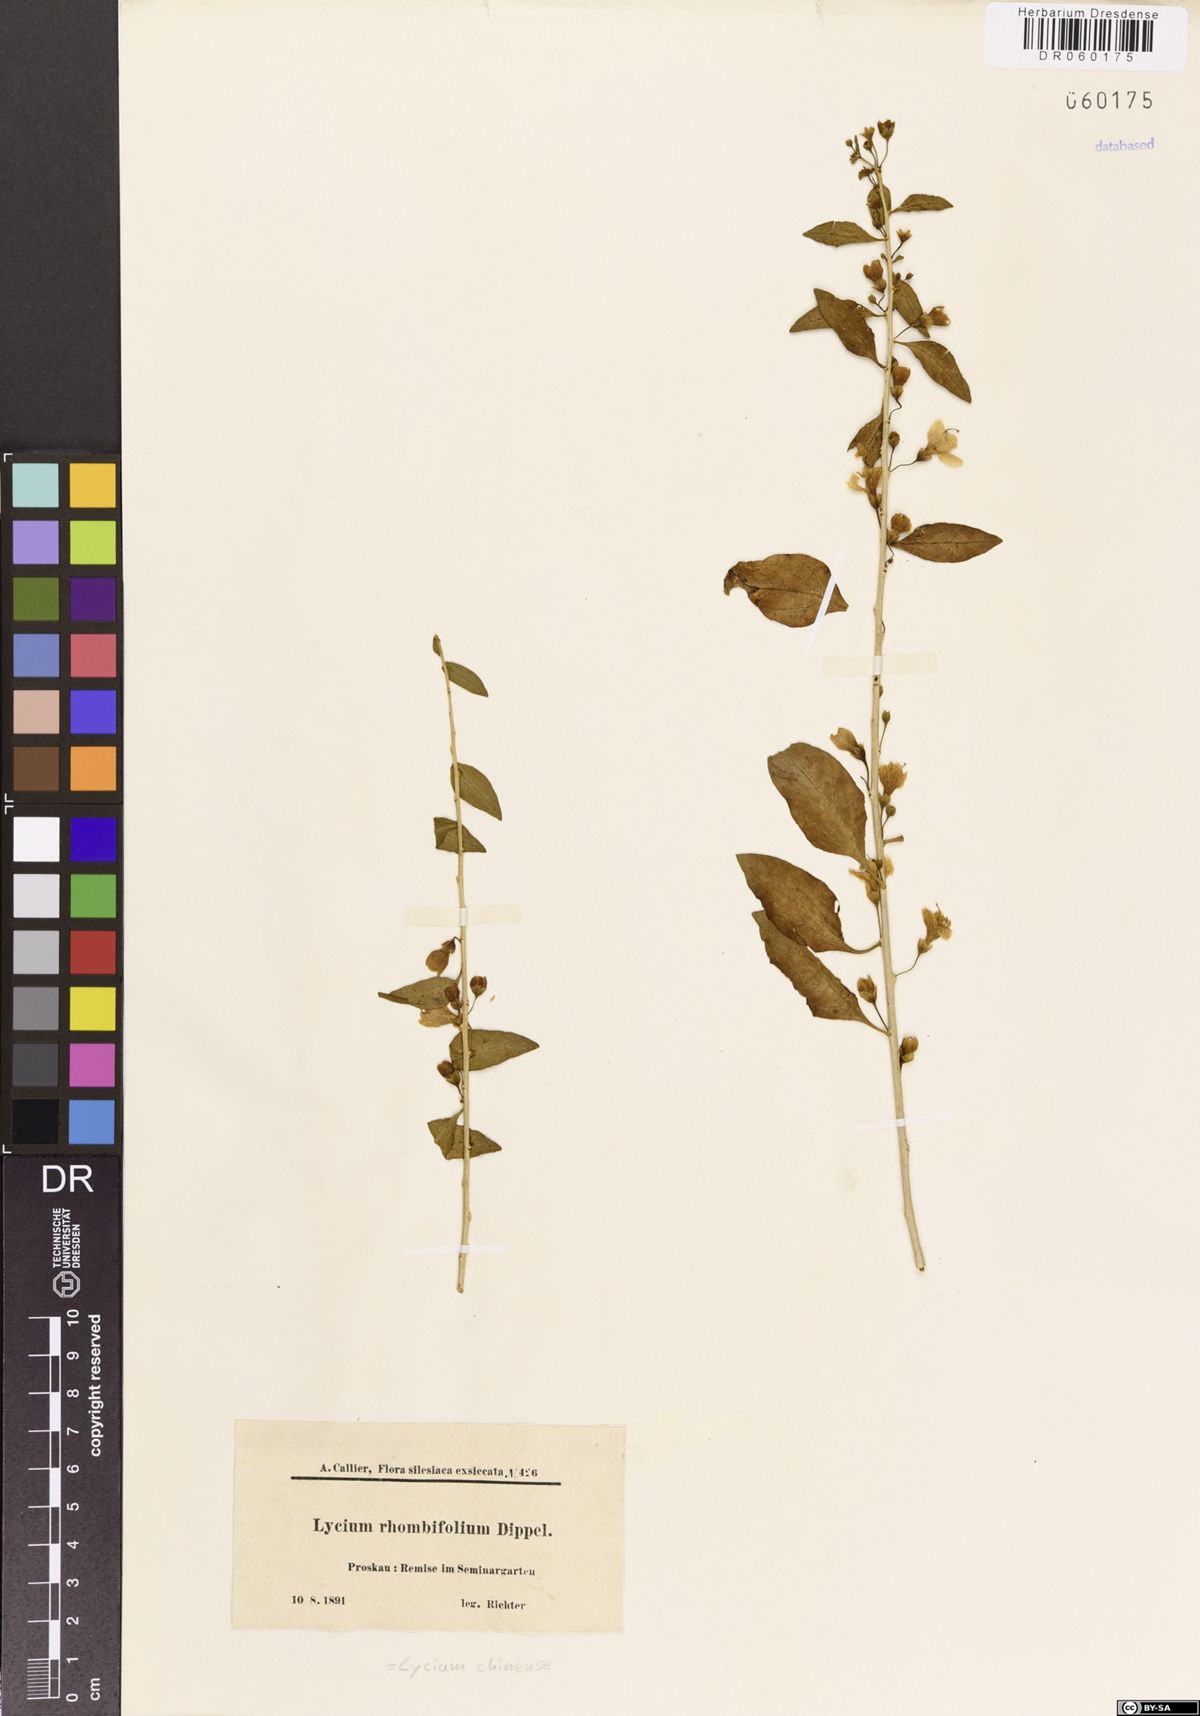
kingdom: Plantae
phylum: Tracheophyta
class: Magnoliopsida
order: Solanales
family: Solanaceae
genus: Lycium
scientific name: Lycium chinense
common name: Chinese teaplant
